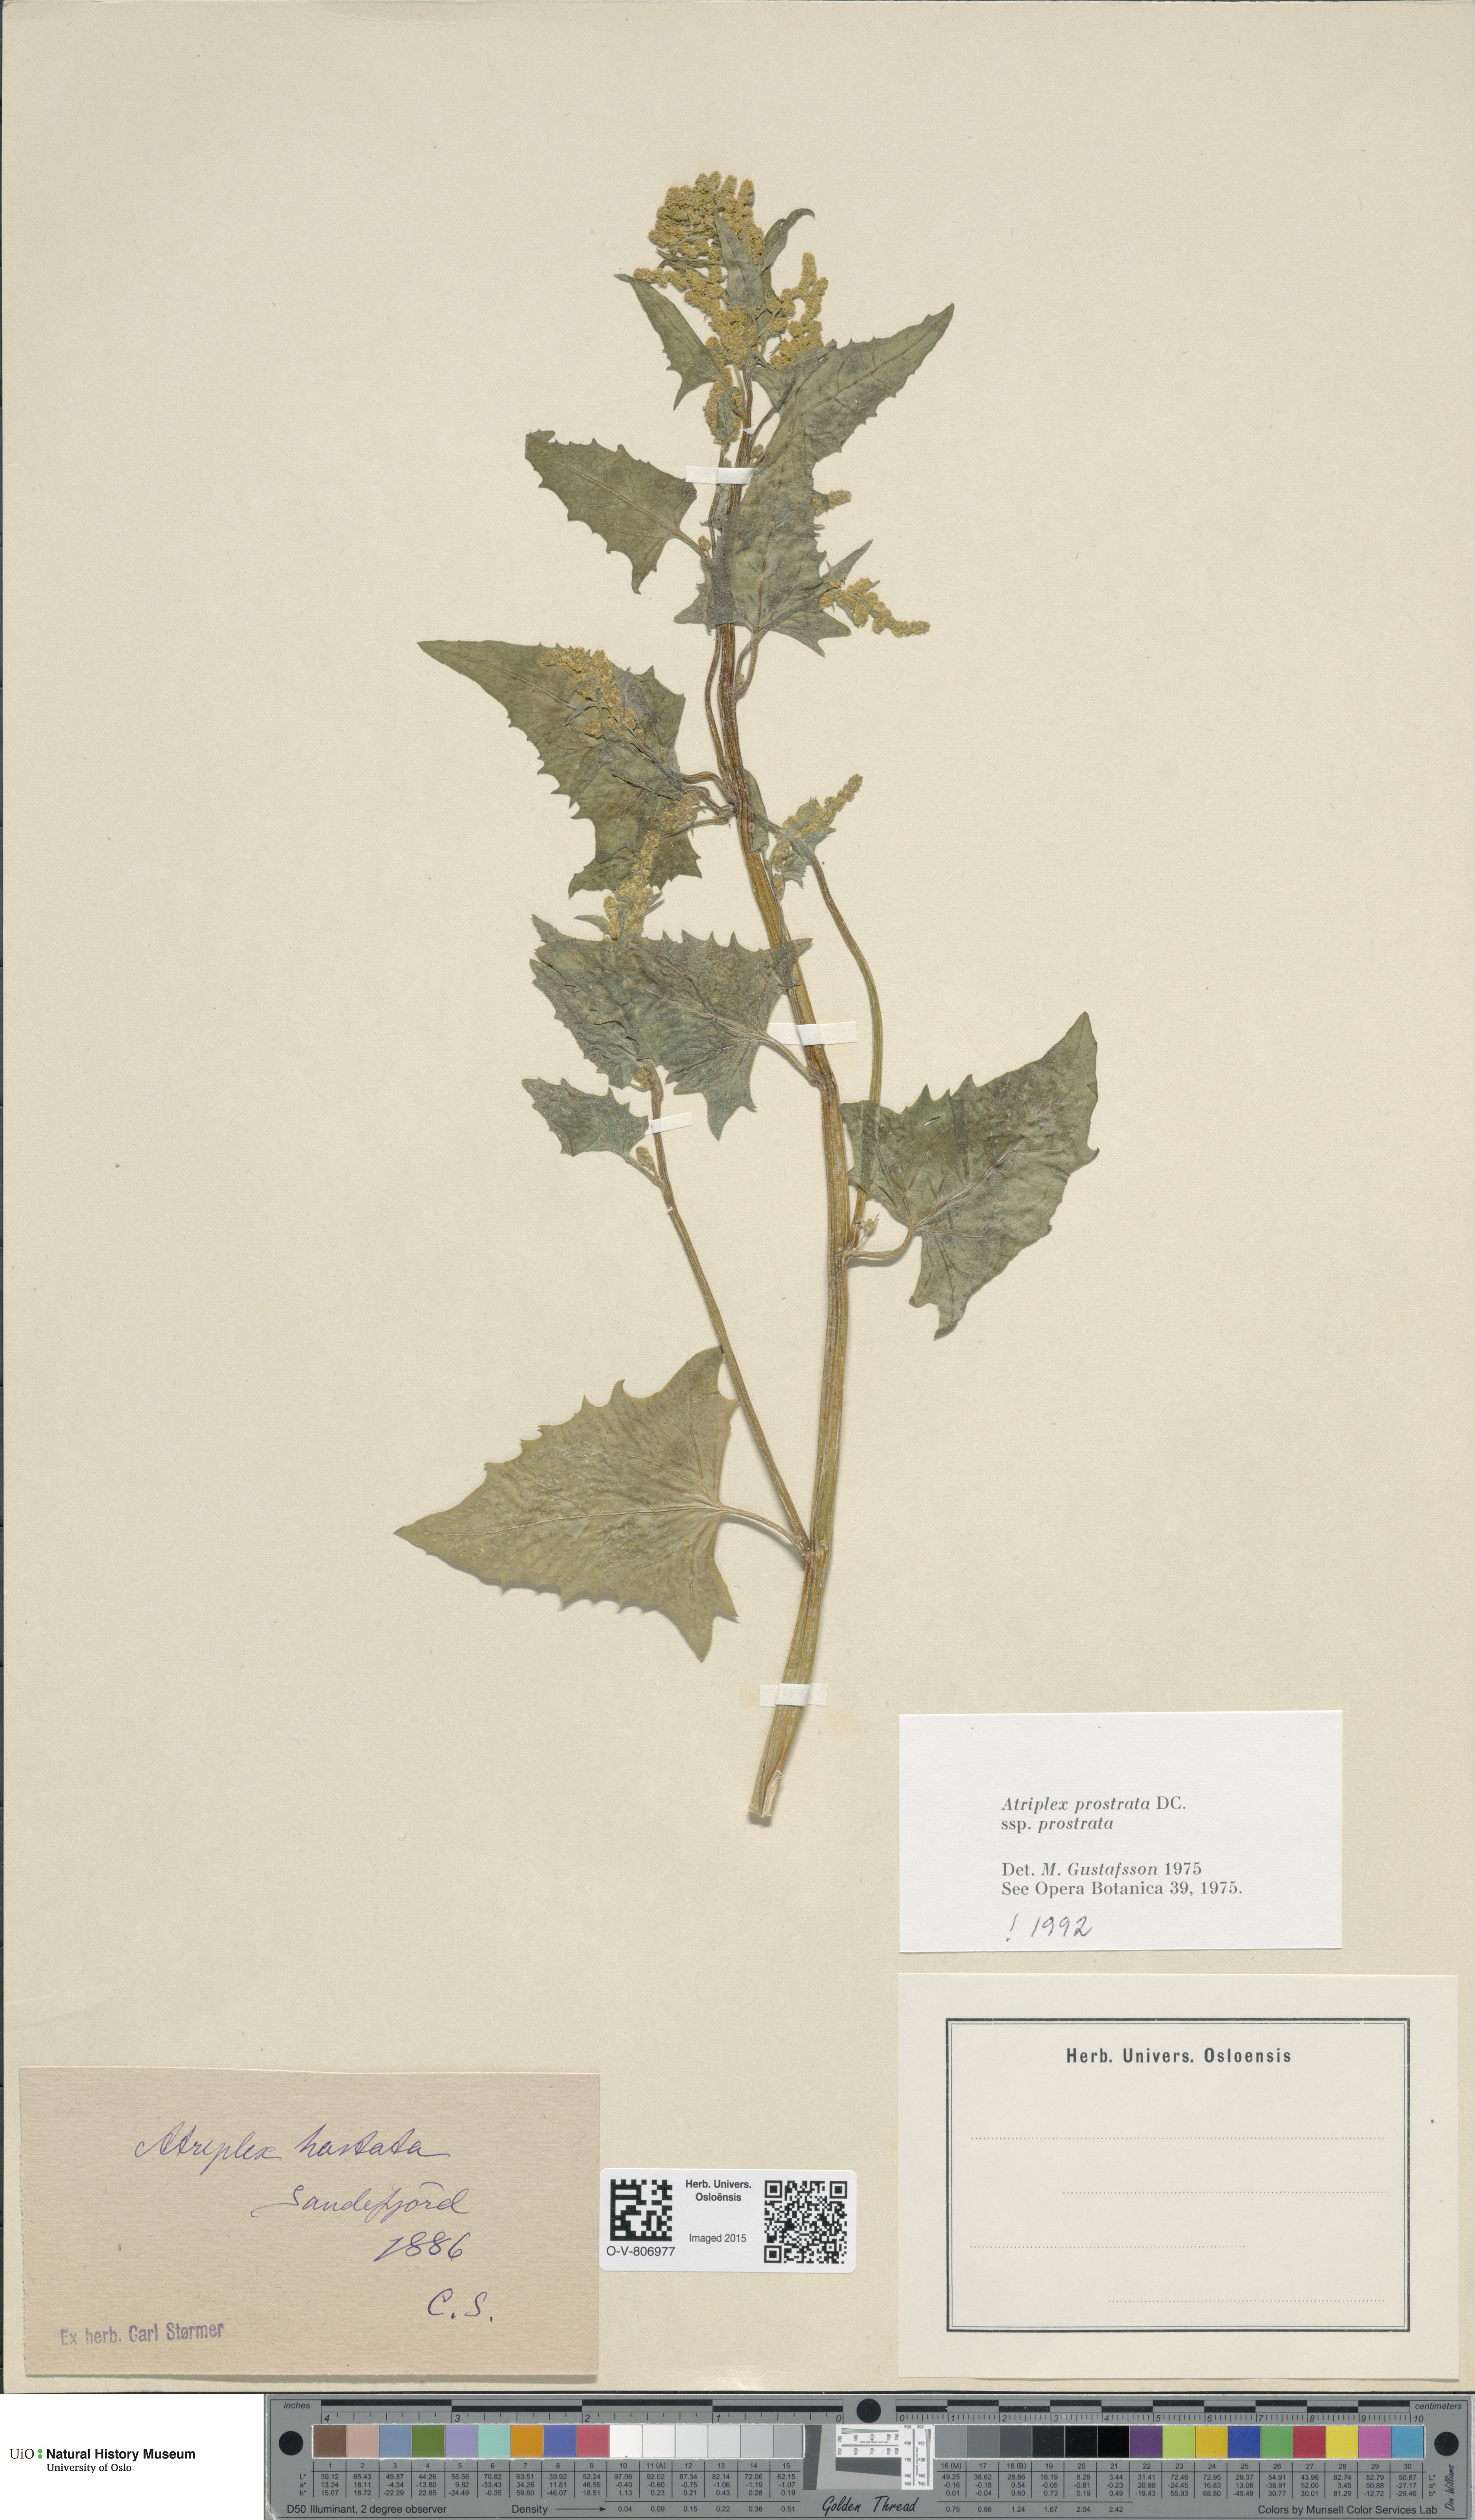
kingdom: Plantae
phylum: Tracheophyta
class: Magnoliopsida
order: Caryophyllales
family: Amaranthaceae
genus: Atriplex
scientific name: Atriplex prostrata
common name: Spear-leaved orache
